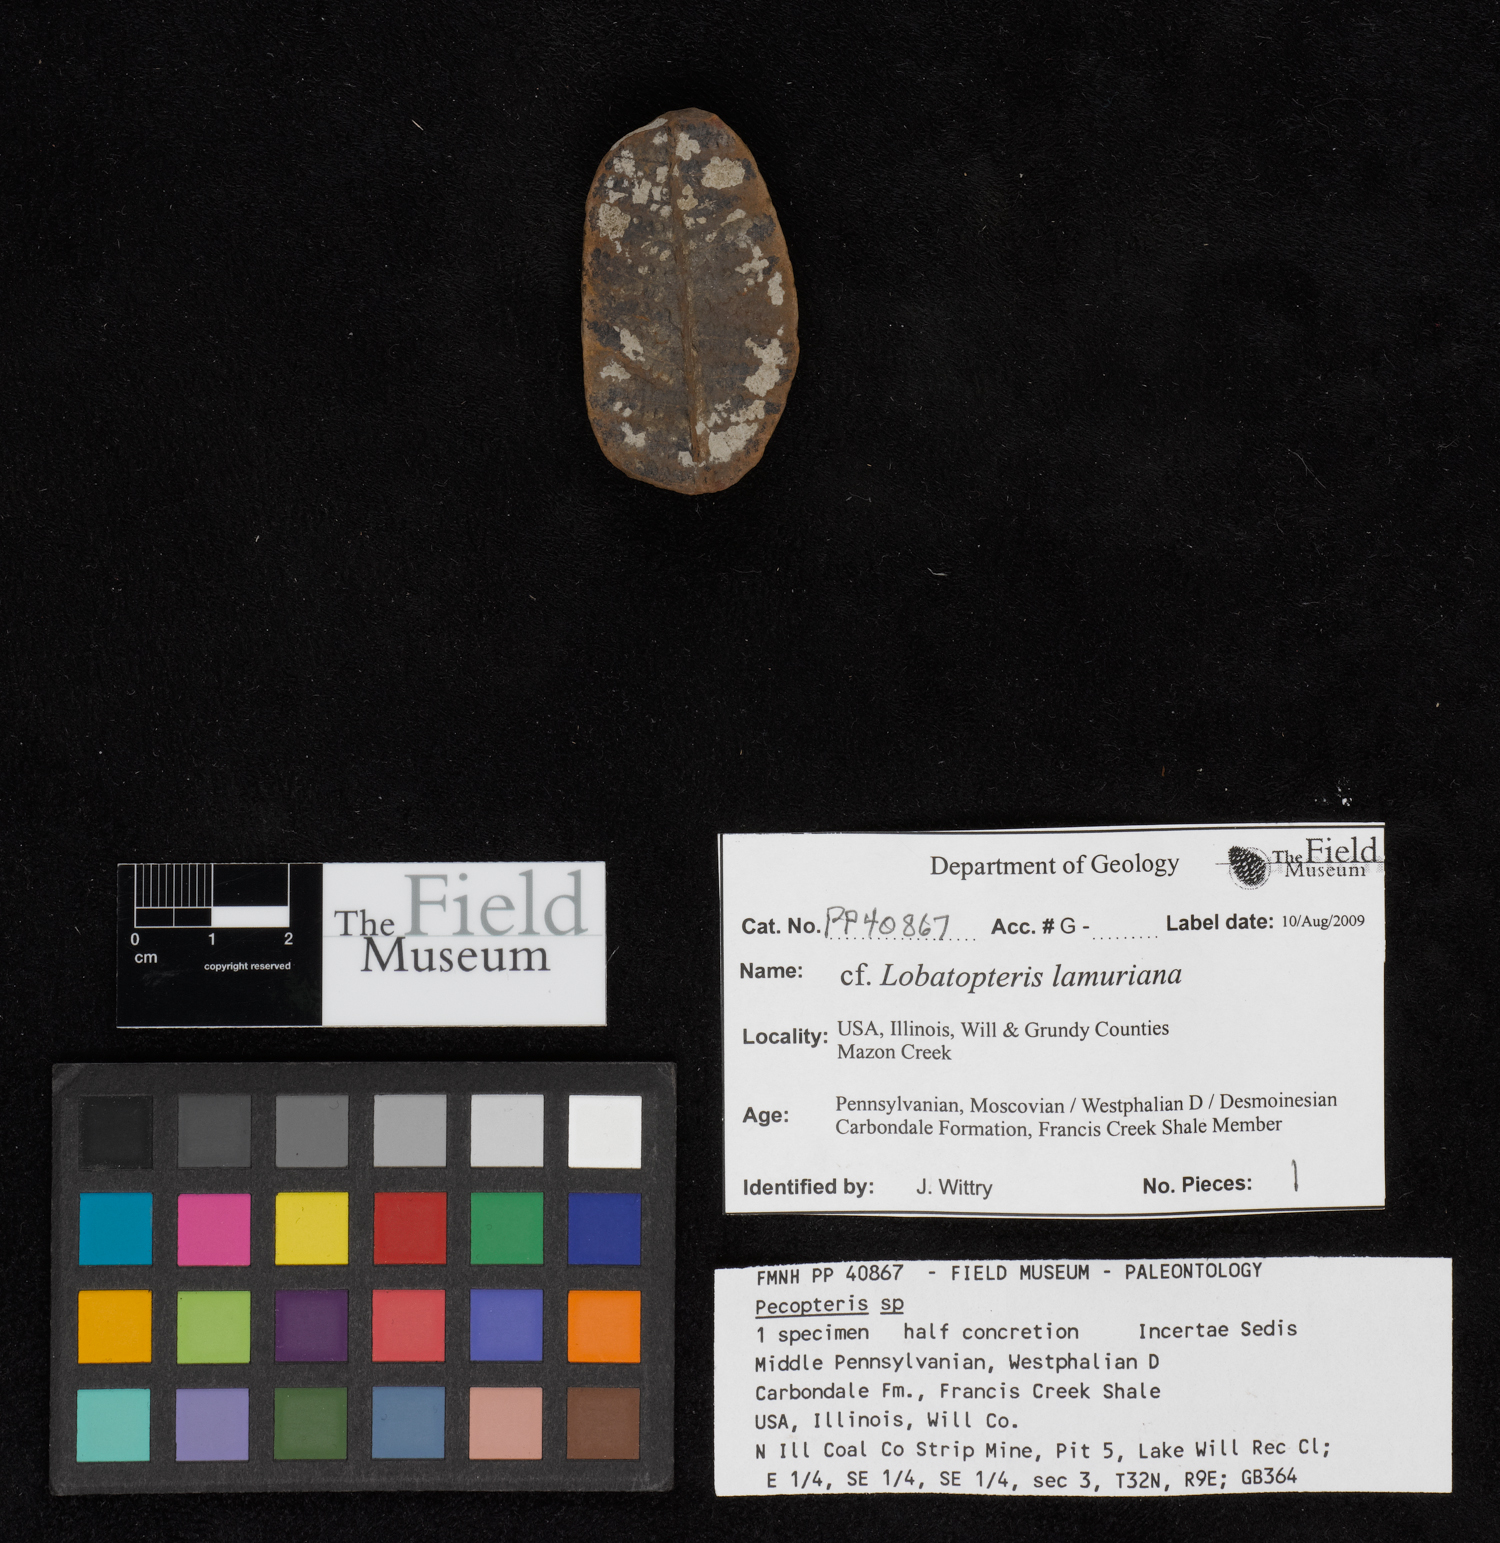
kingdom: Plantae
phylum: Tracheophyta
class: Polypodiopsida
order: Marattiales
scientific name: Marattiales
